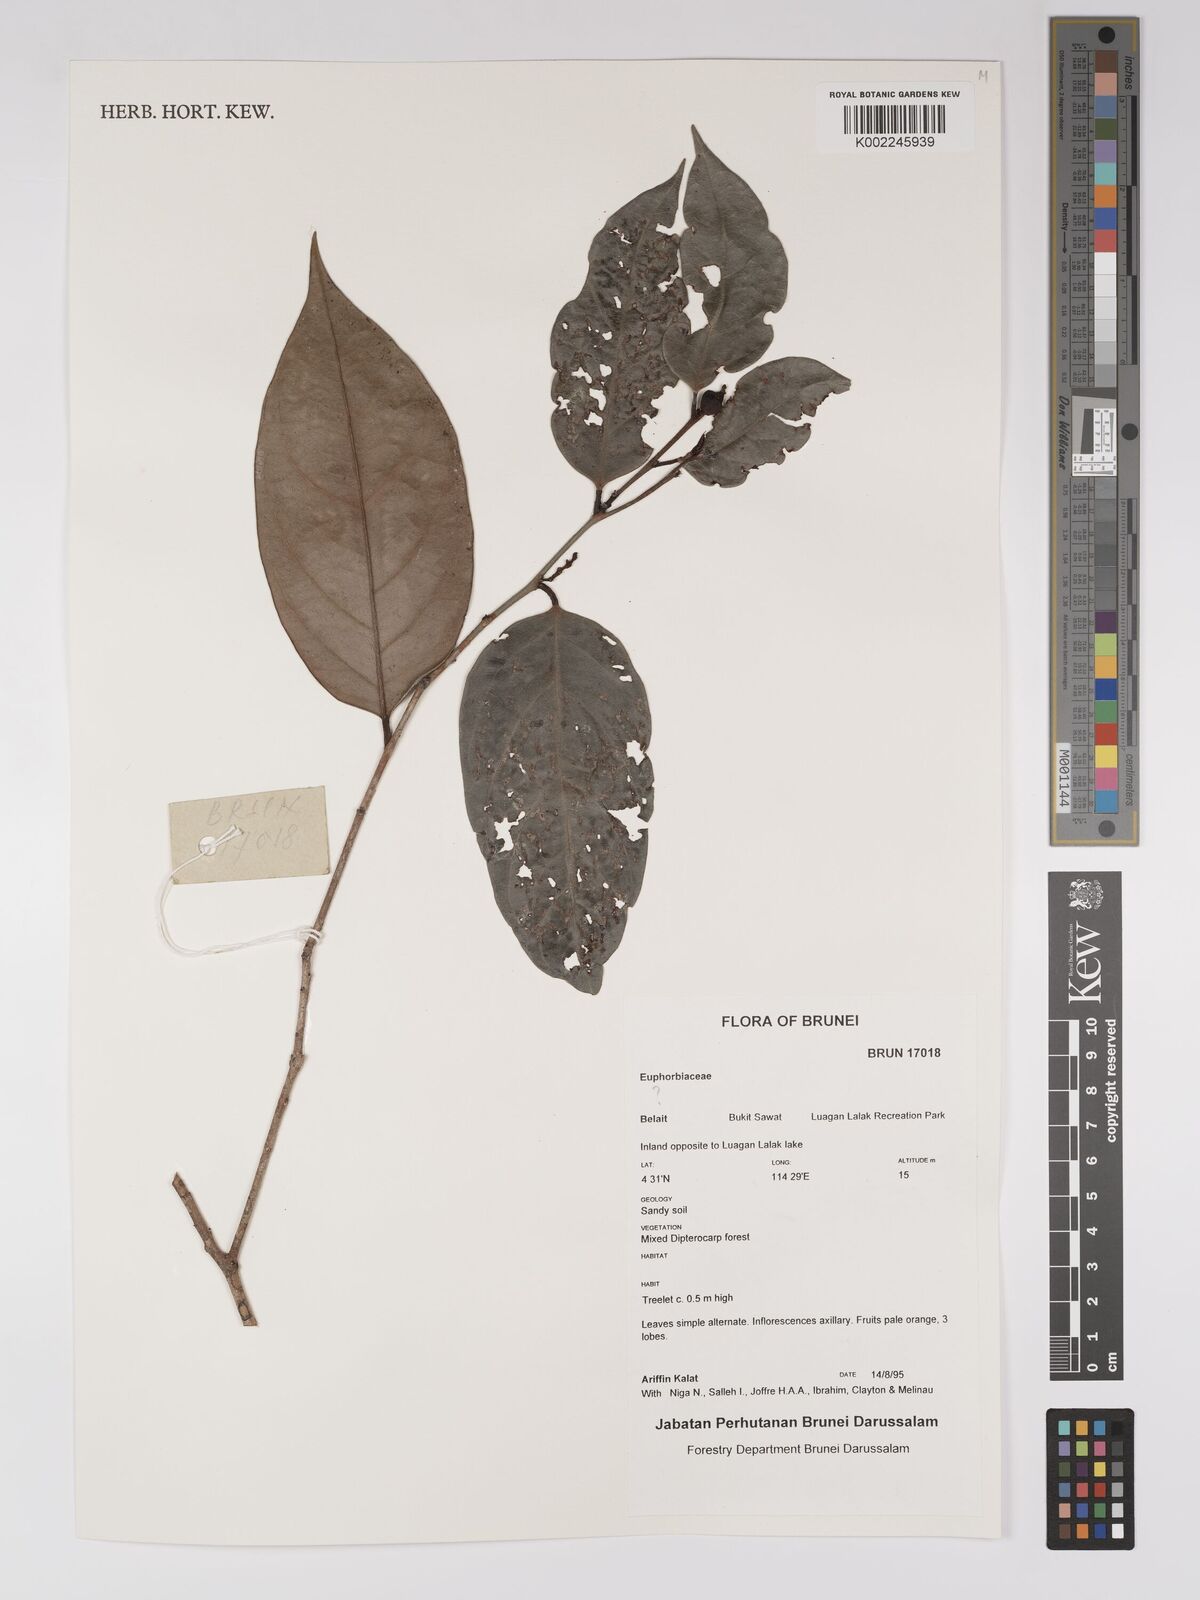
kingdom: Plantae
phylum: Tracheophyta
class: Magnoliopsida
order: Malpighiales
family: Euphorbiaceae
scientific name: Euphorbiaceae
